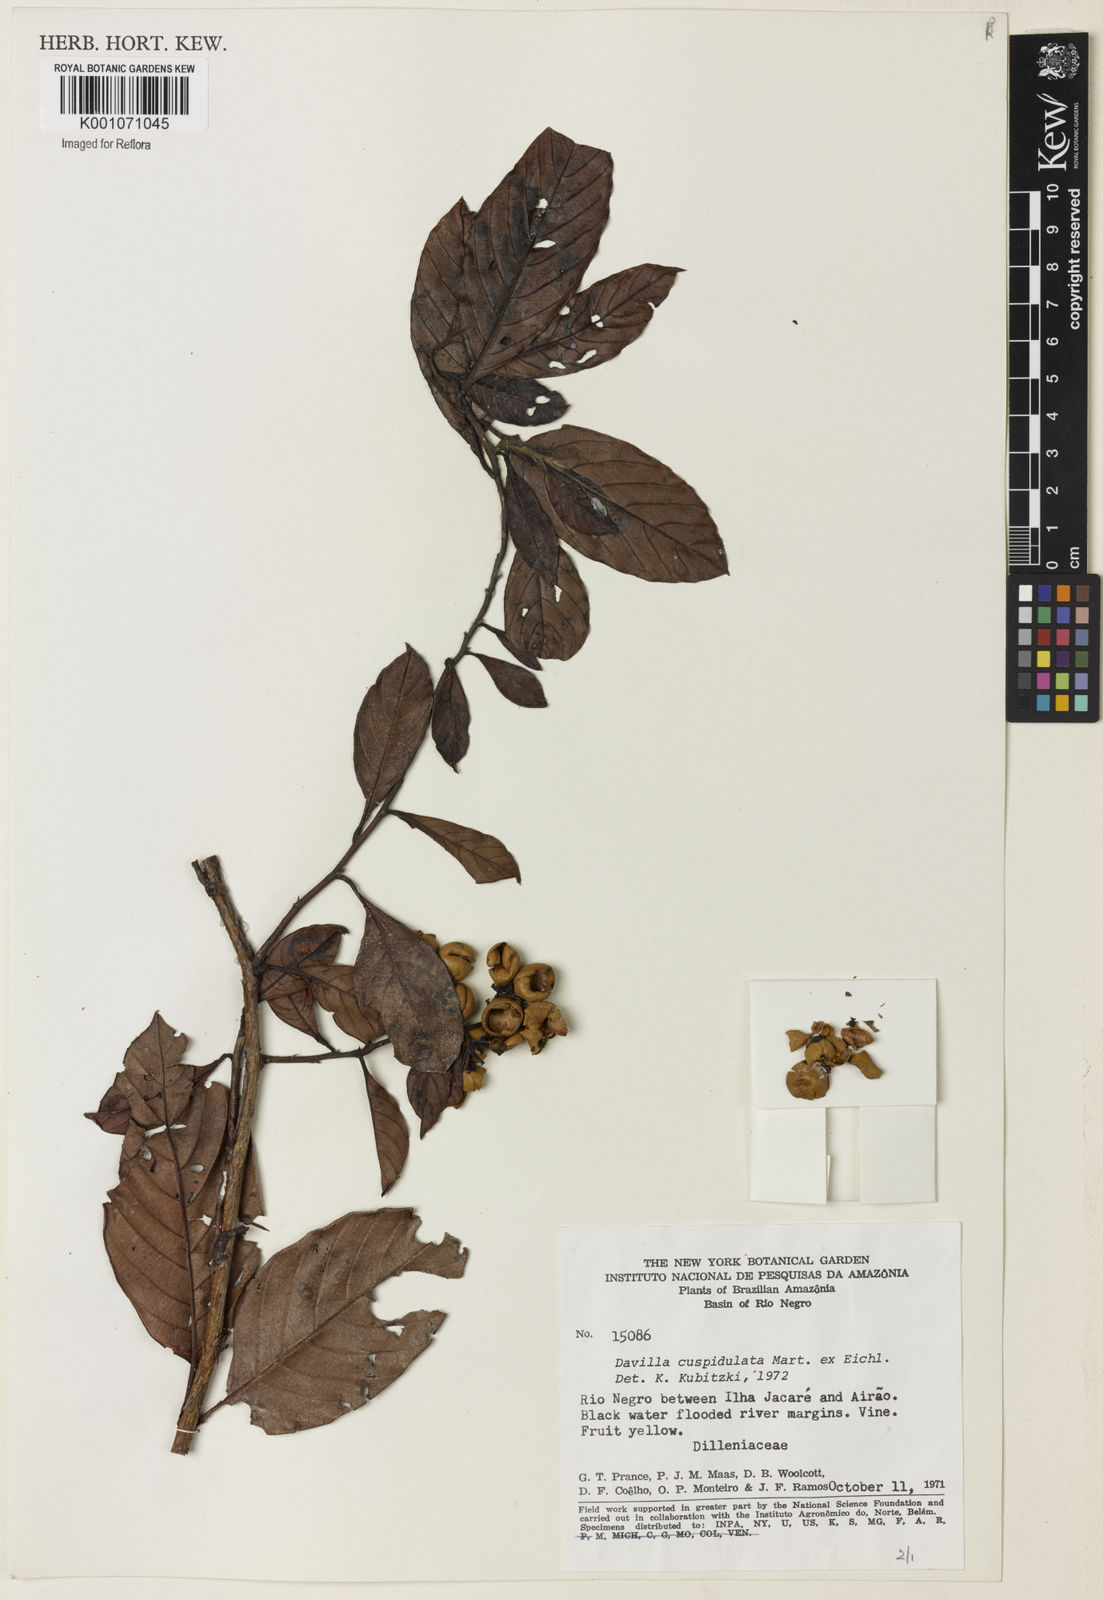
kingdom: Plantae
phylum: Tracheophyta
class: Magnoliopsida
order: Dilleniales
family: Dilleniaceae
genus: Davilla
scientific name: Davilla cuspidulata
